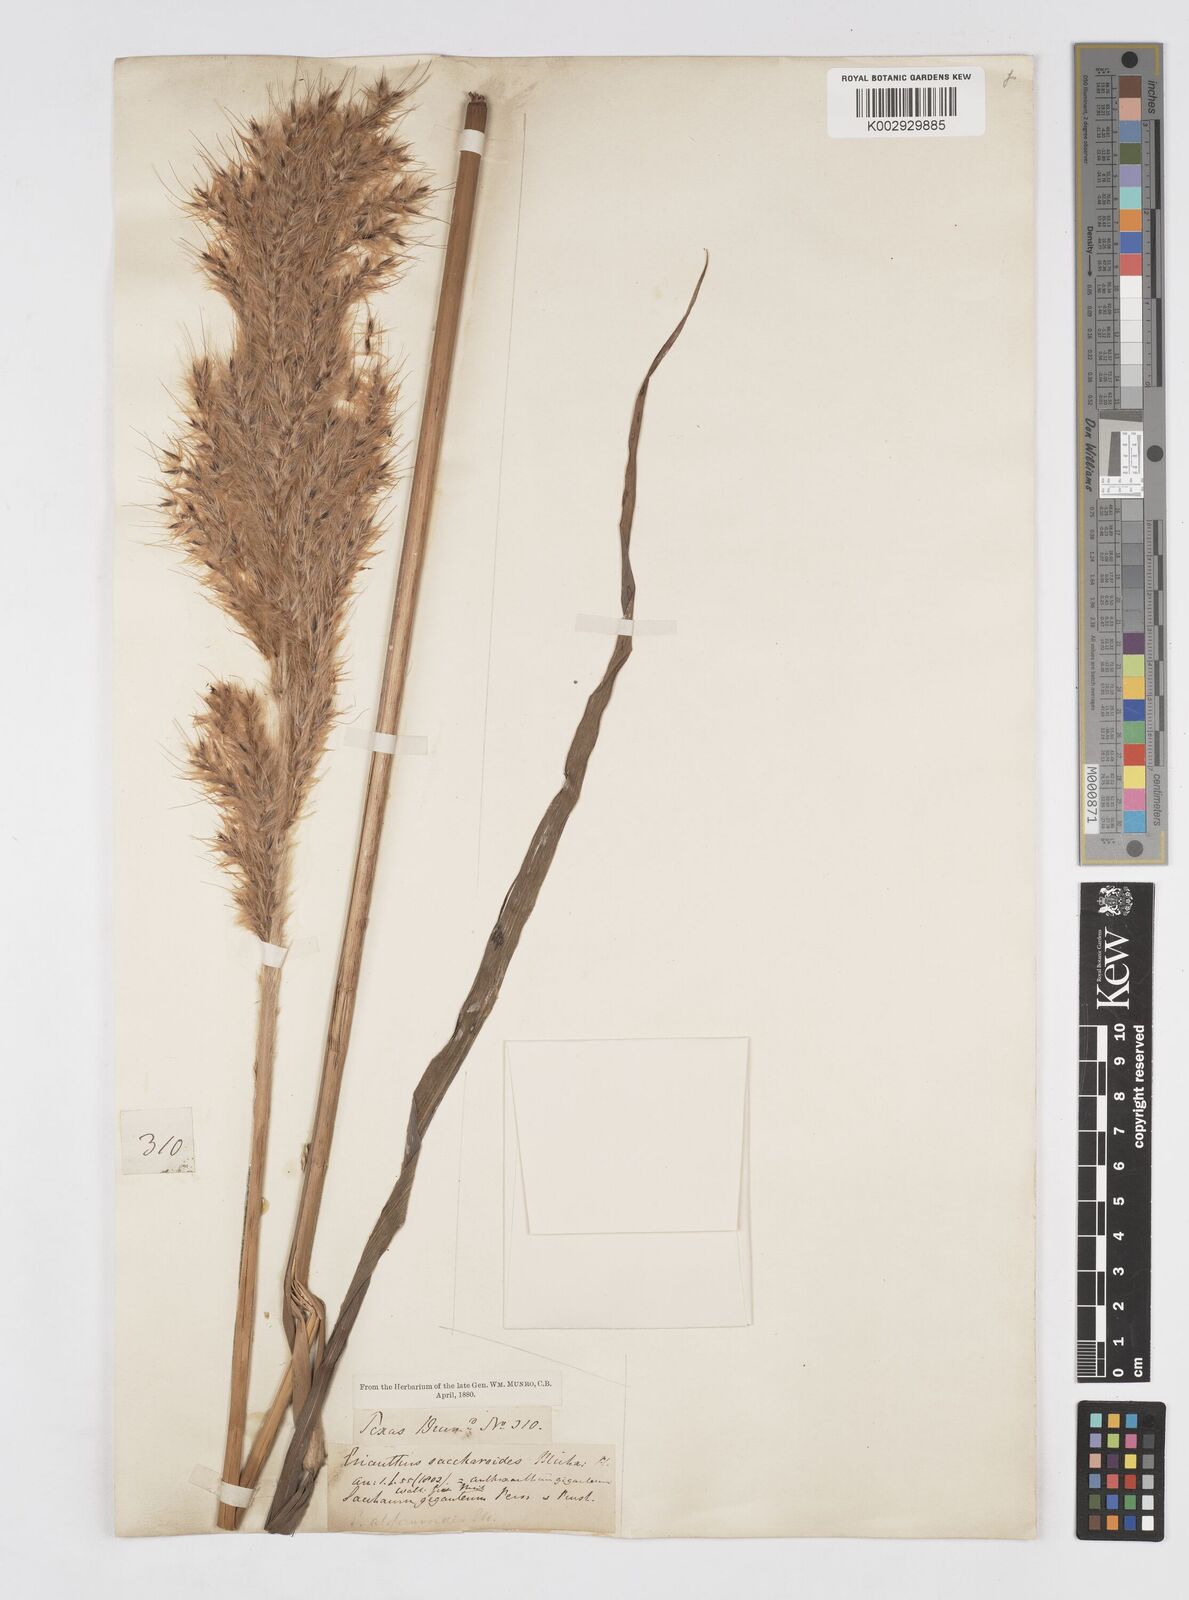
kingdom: Plantae
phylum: Tracheophyta
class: Liliopsida
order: Poales
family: Poaceae
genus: Saccharum
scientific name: Saccharum
